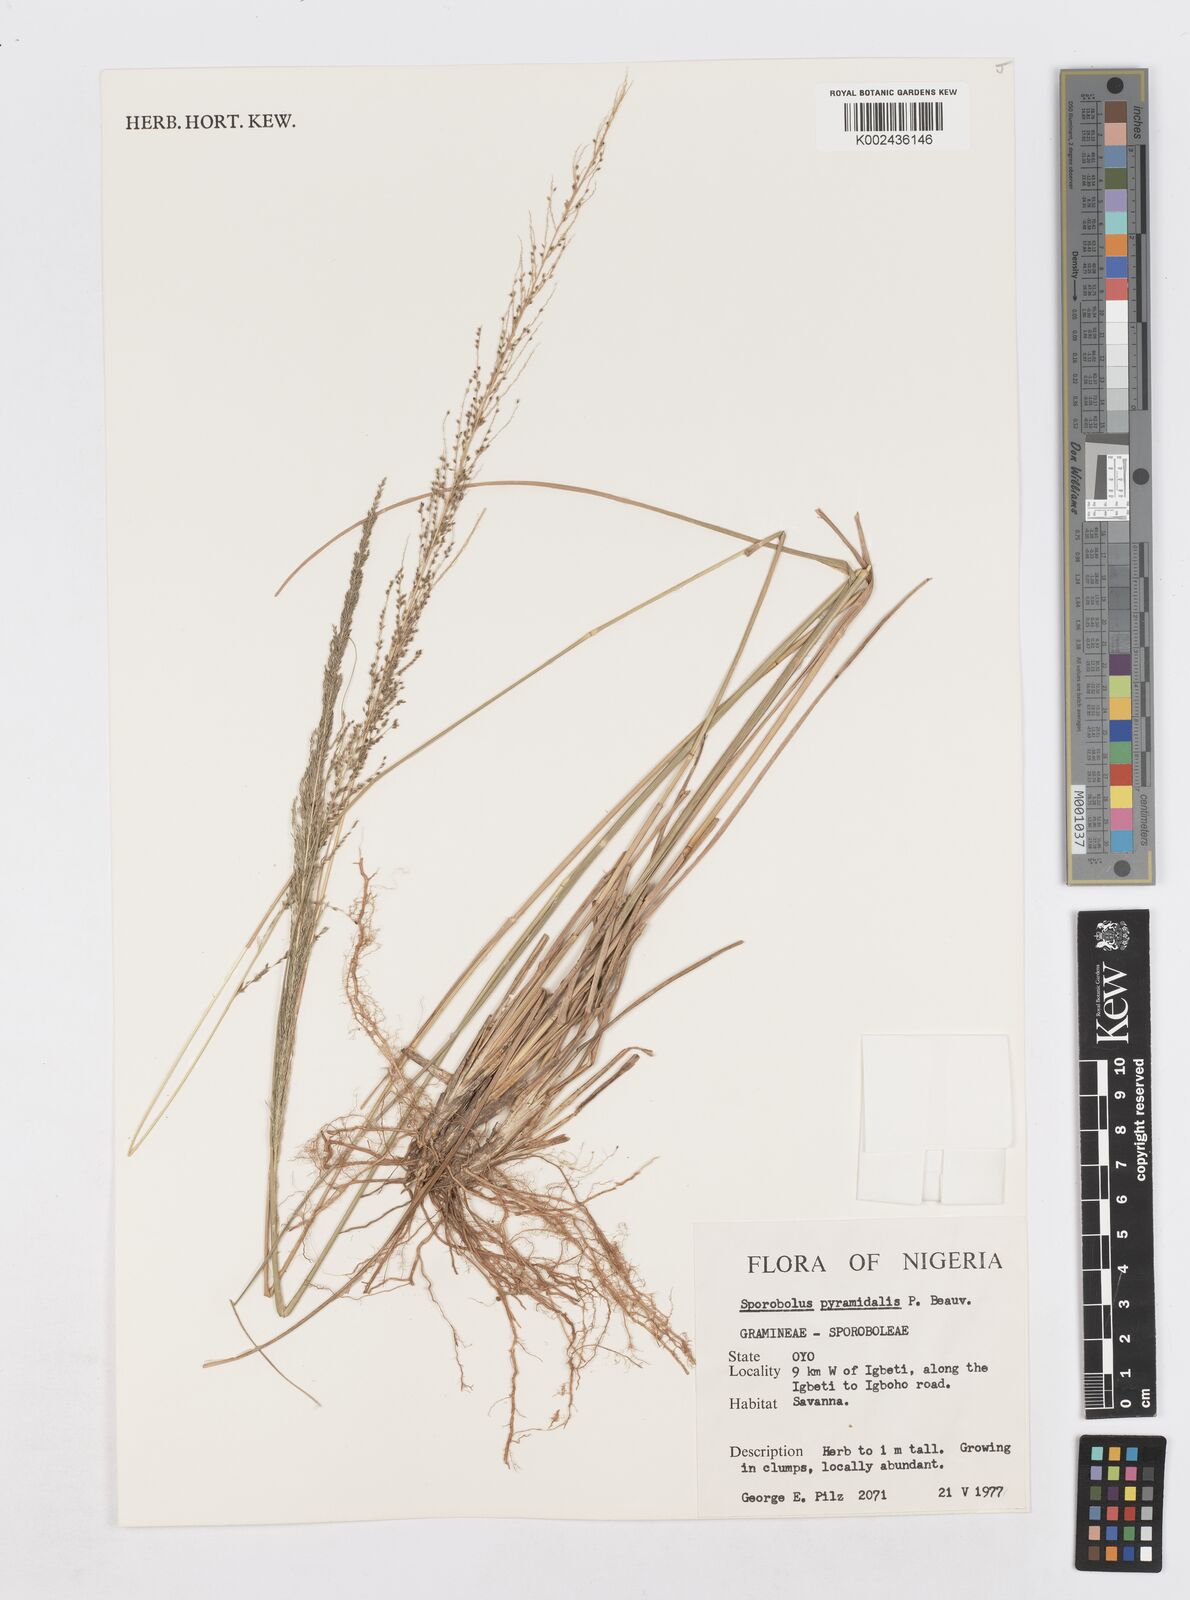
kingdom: Plantae
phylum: Tracheophyta
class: Liliopsida
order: Poales
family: Poaceae
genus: Sporobolus
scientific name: Sporobolus pyramidalis
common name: West indian dropseed
